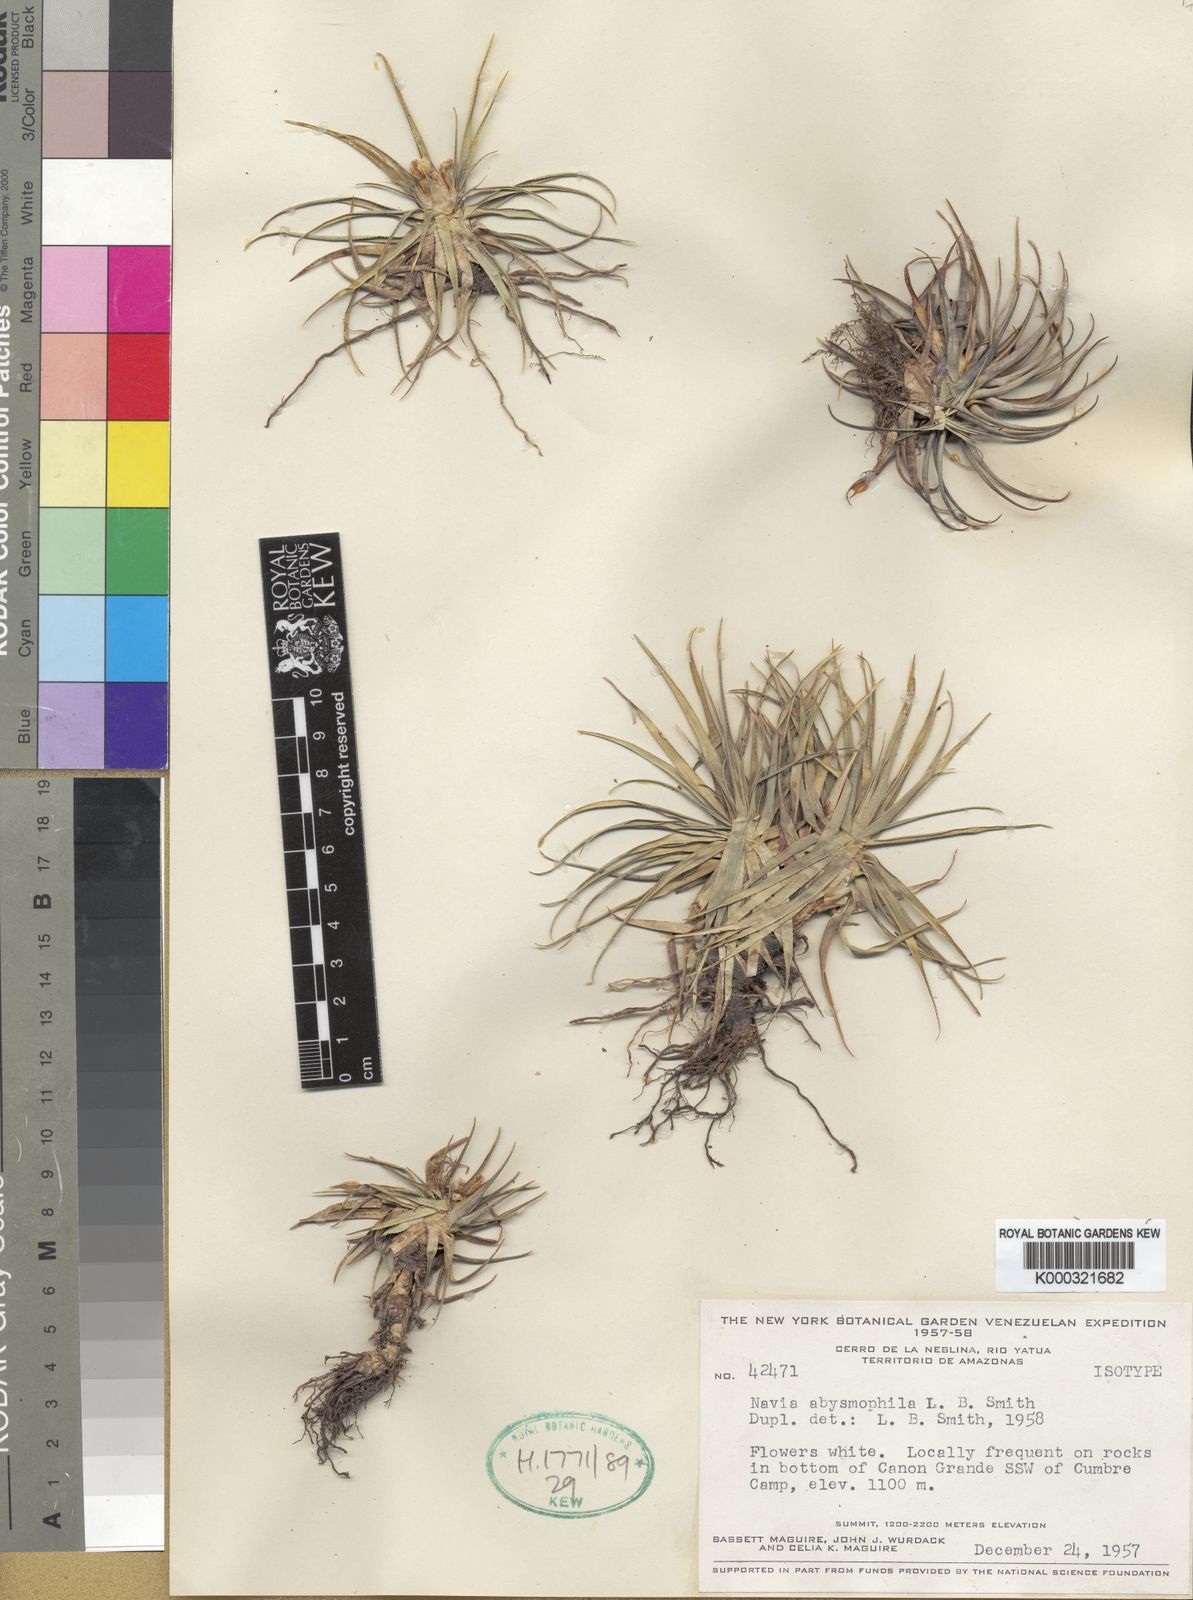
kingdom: Plantae
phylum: Tracheophyta
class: Liliopsida
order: Poales
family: Bromeliaceae
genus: Navia
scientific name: Navia abysmophila
